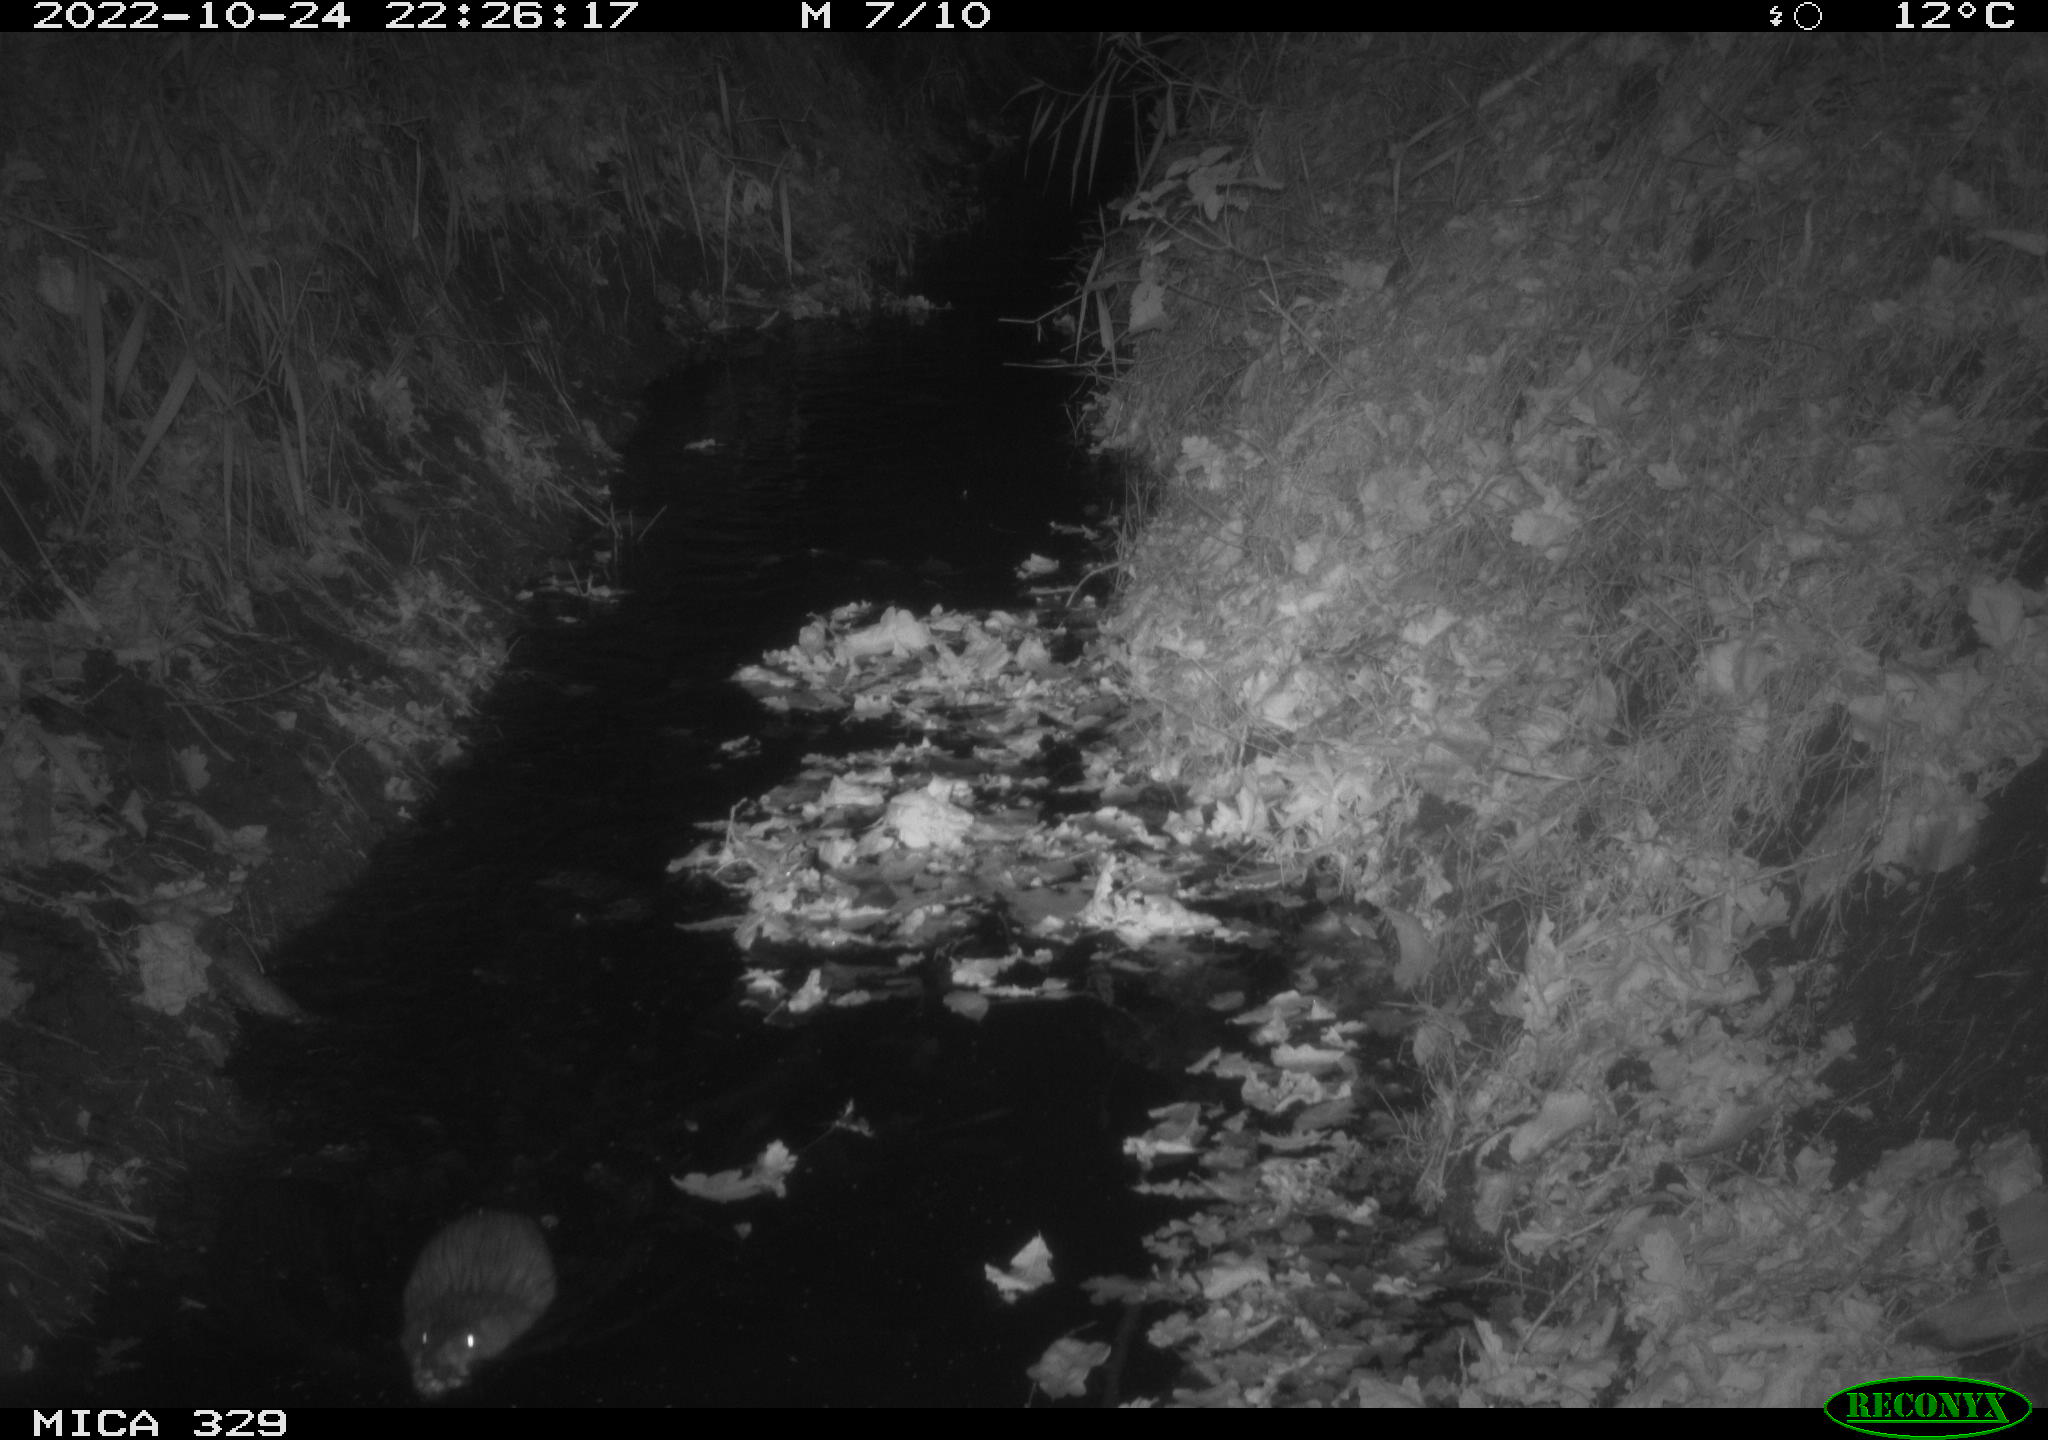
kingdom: Animalia
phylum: Chordata
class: Mammalia
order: Rodentia
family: Cricetidae
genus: Ondatra
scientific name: Ondatra zibethicus
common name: Muskrat
